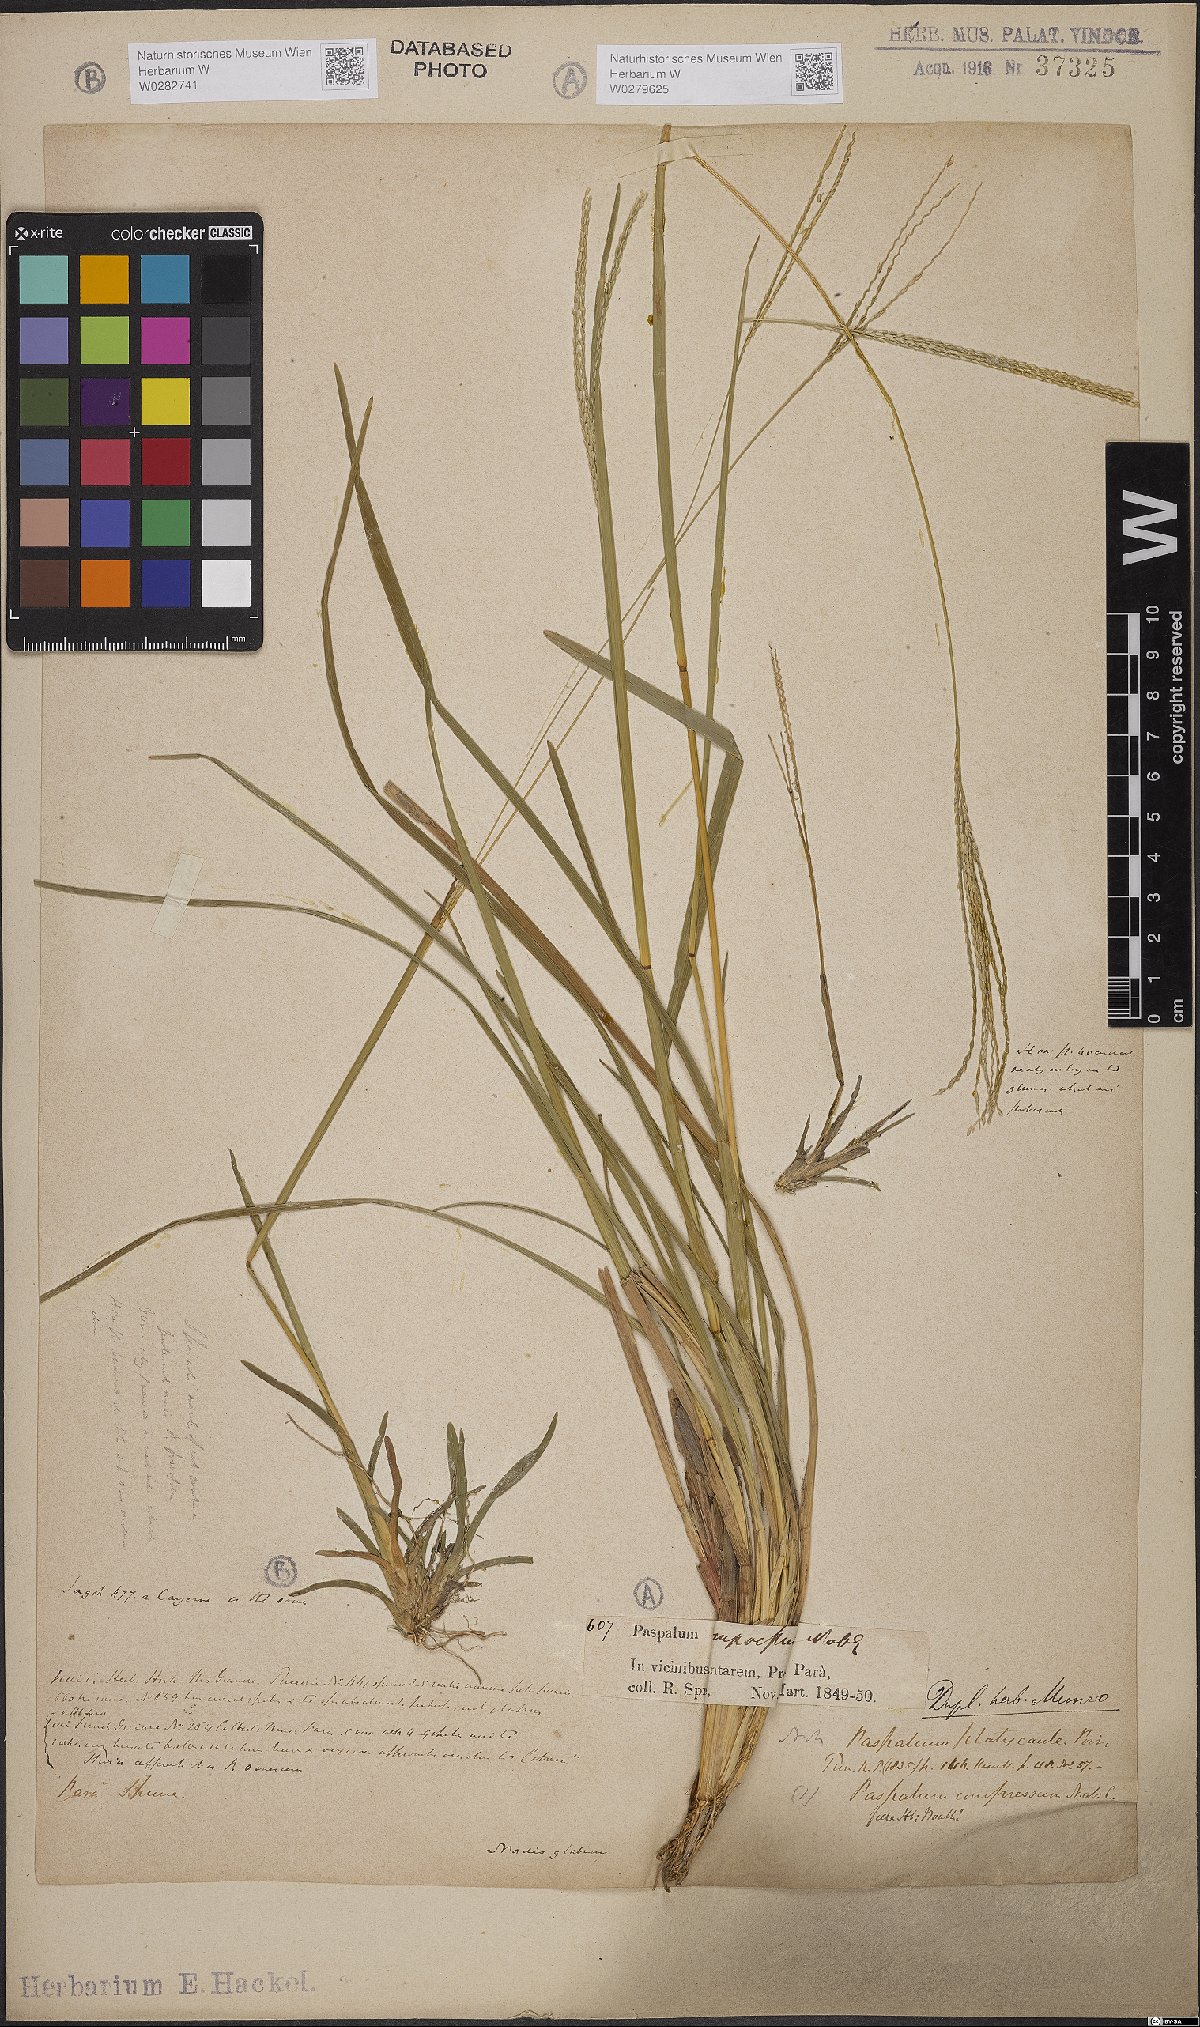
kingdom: Plantae
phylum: Tracheophyta
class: Liliopsida
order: Poales
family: Poaceae
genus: Axonopus
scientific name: Axonopus compressus
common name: American carpet grass
